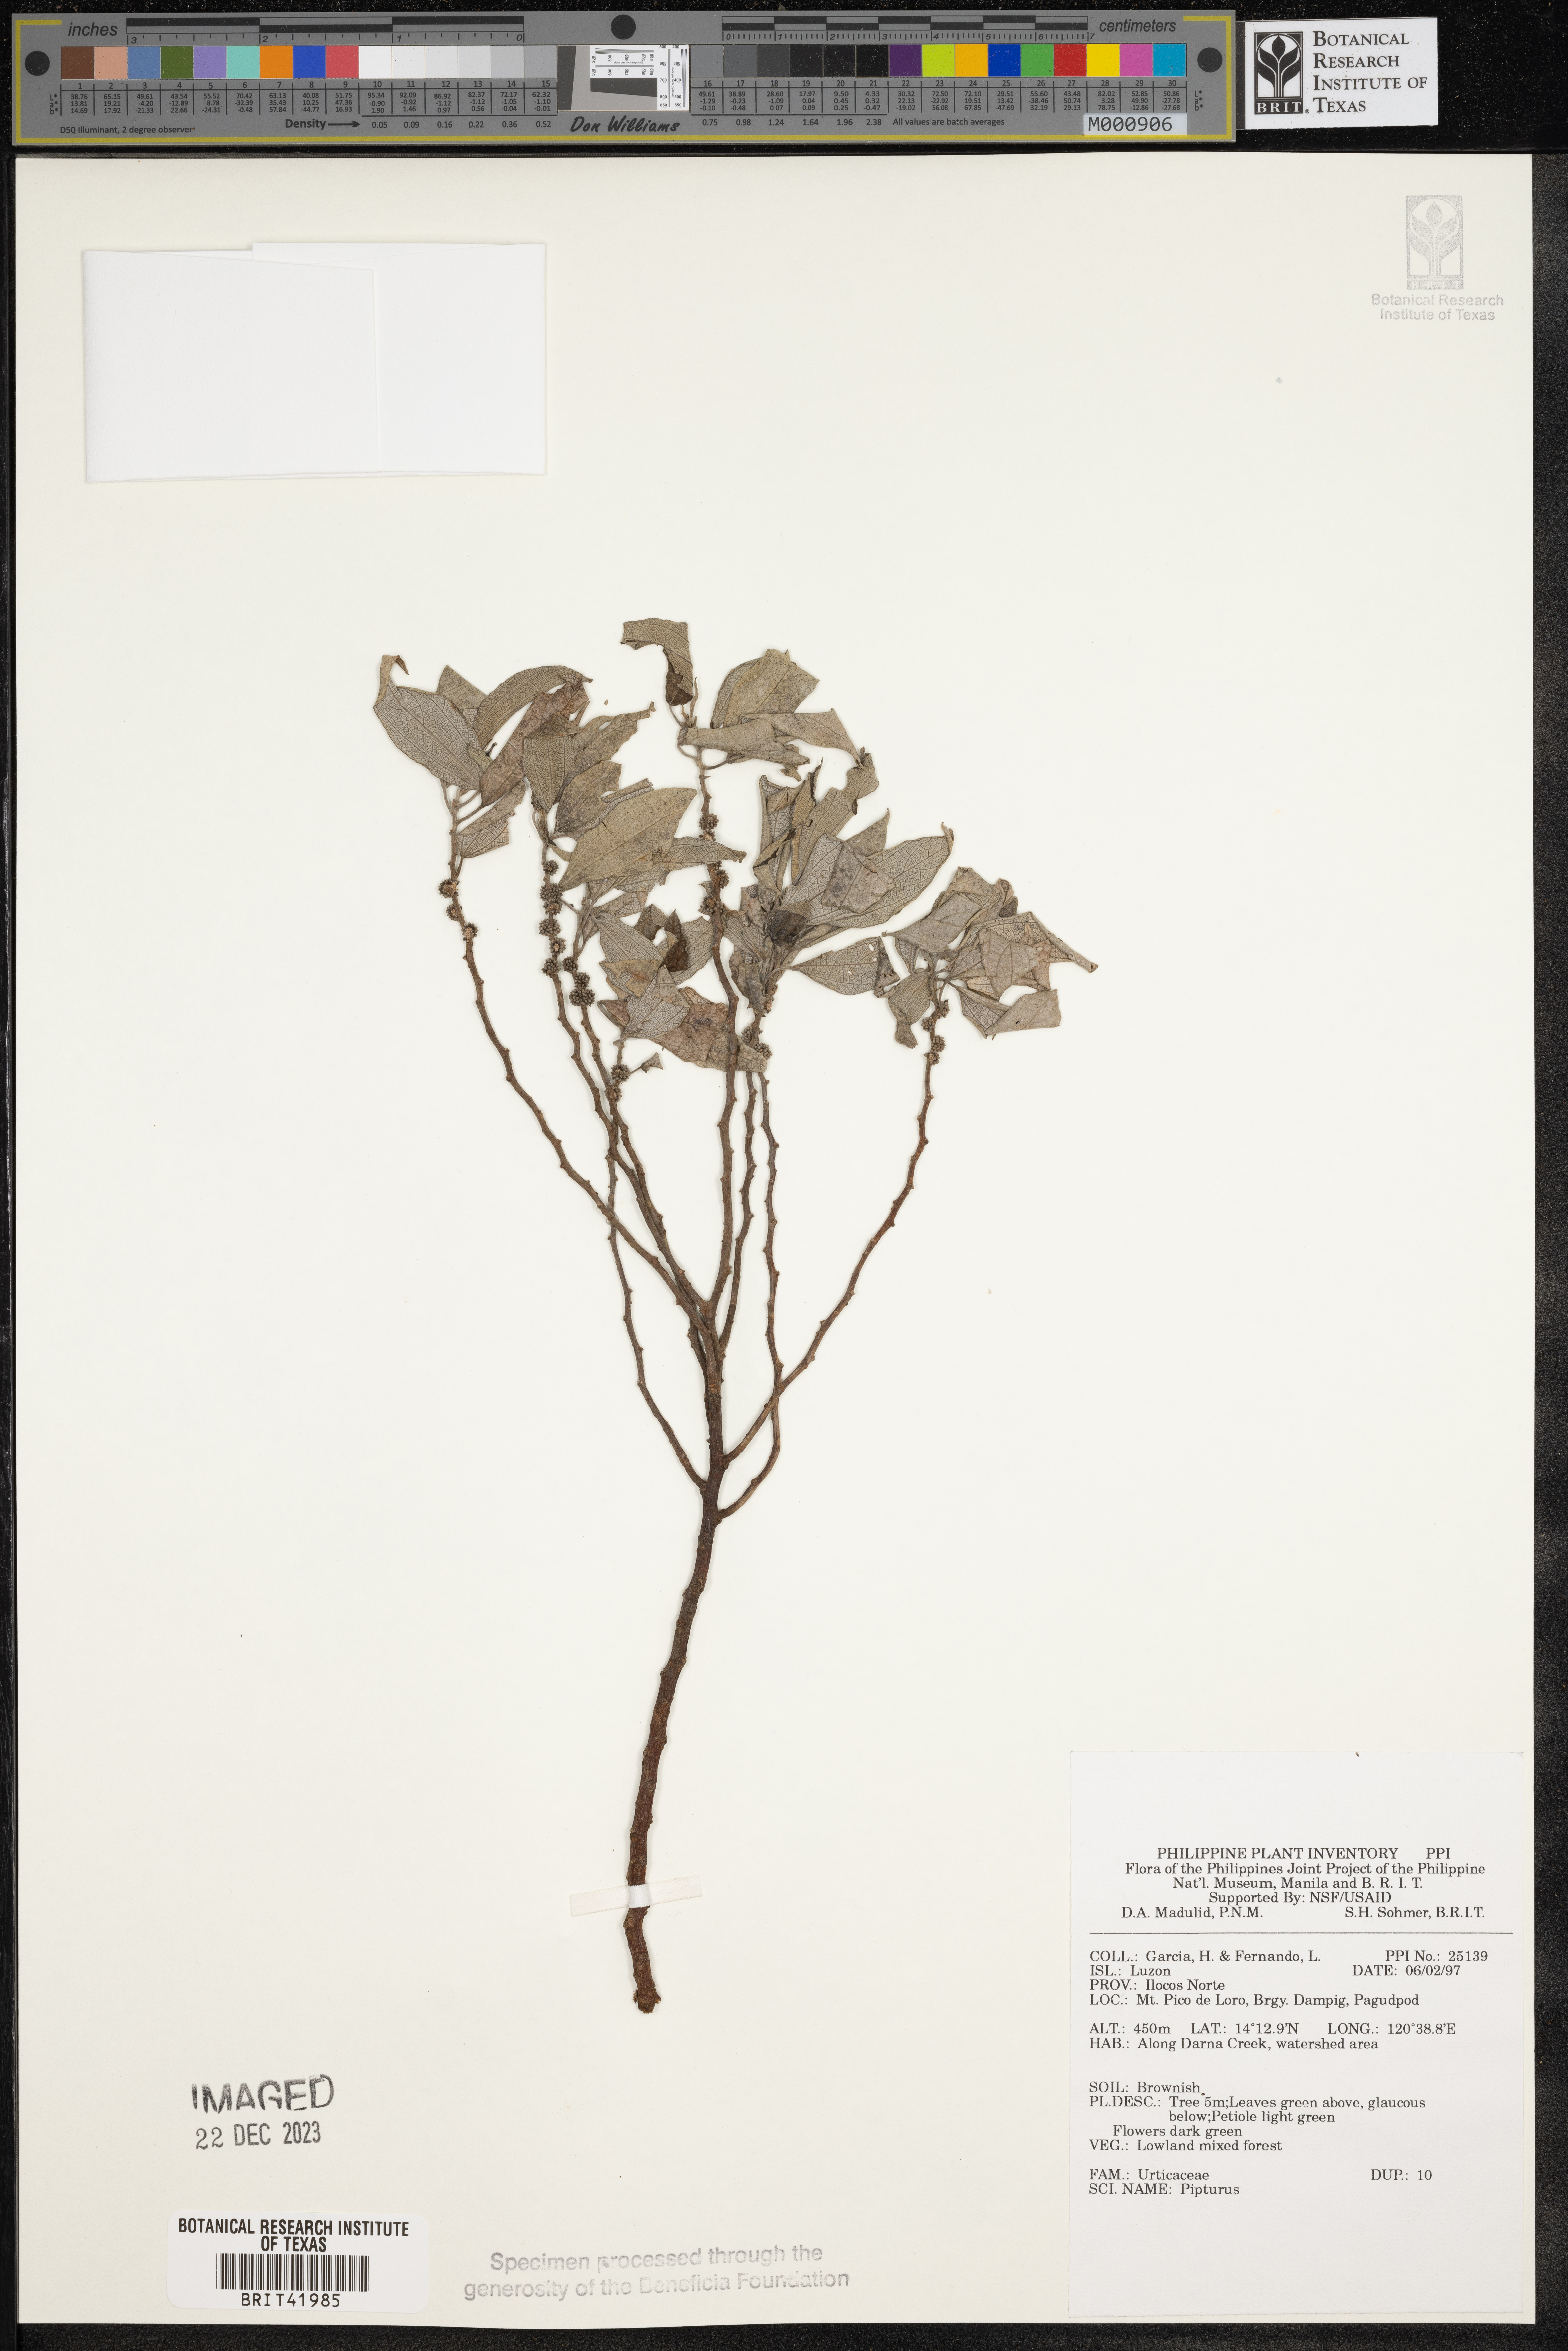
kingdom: Plantae
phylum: Tracheophyta
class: Magnoliopsida
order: Rosales
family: Urticaceae
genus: Pipturus
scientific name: Pipturus
